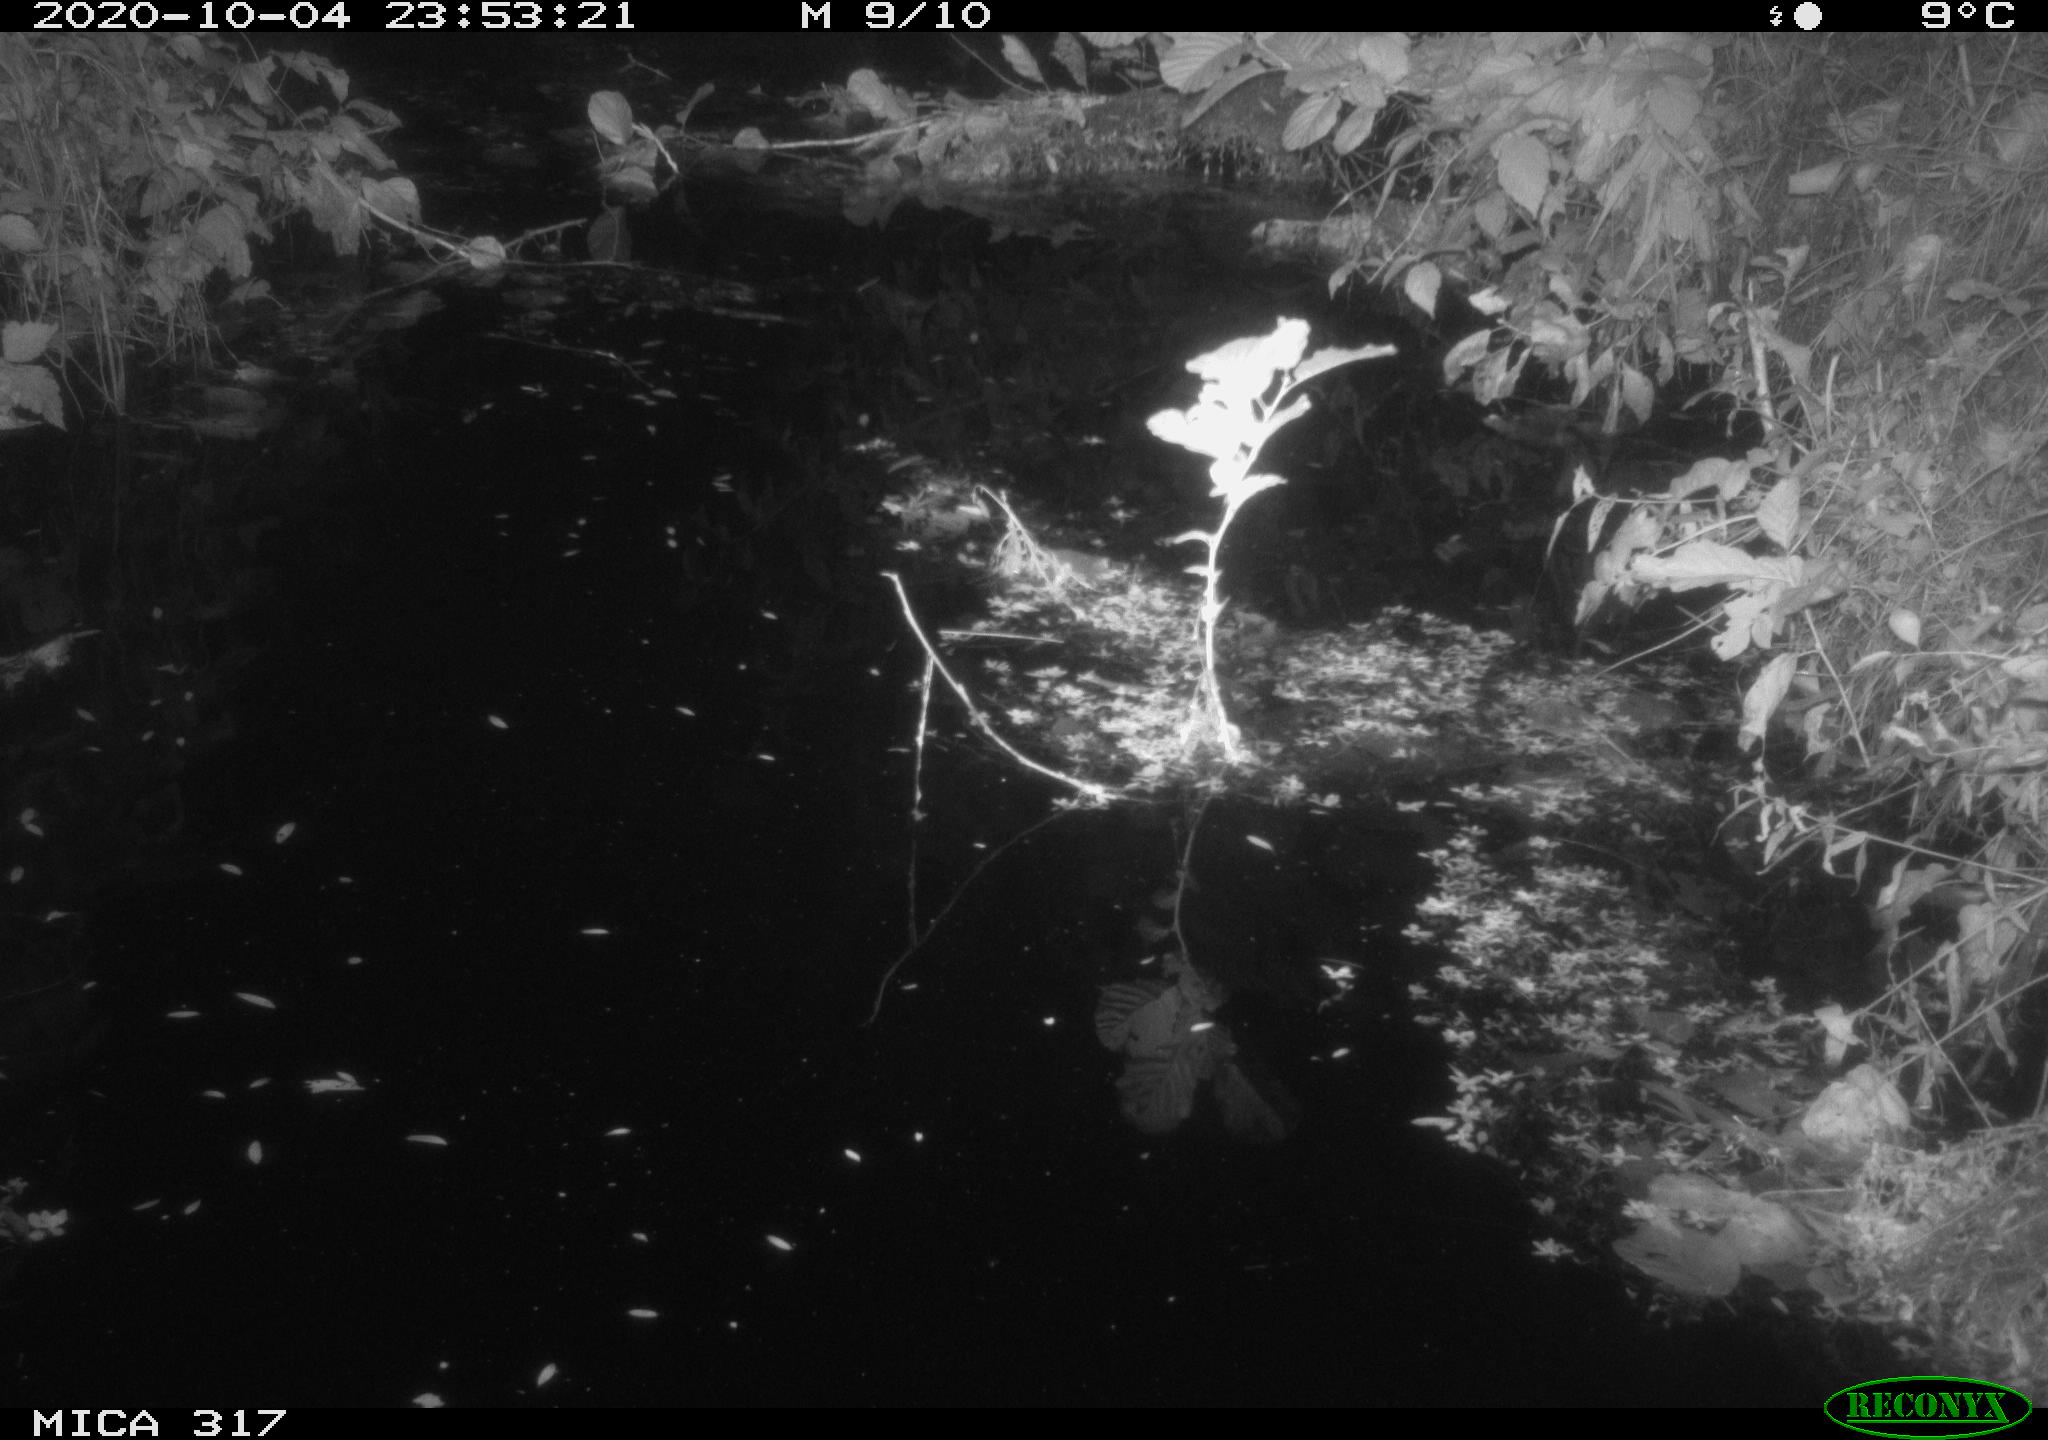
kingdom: Animalia
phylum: Chordata
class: Mammalia
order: Rodentia
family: Muridae
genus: Rattus
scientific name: Rattus norvegicus
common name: Brown rat
